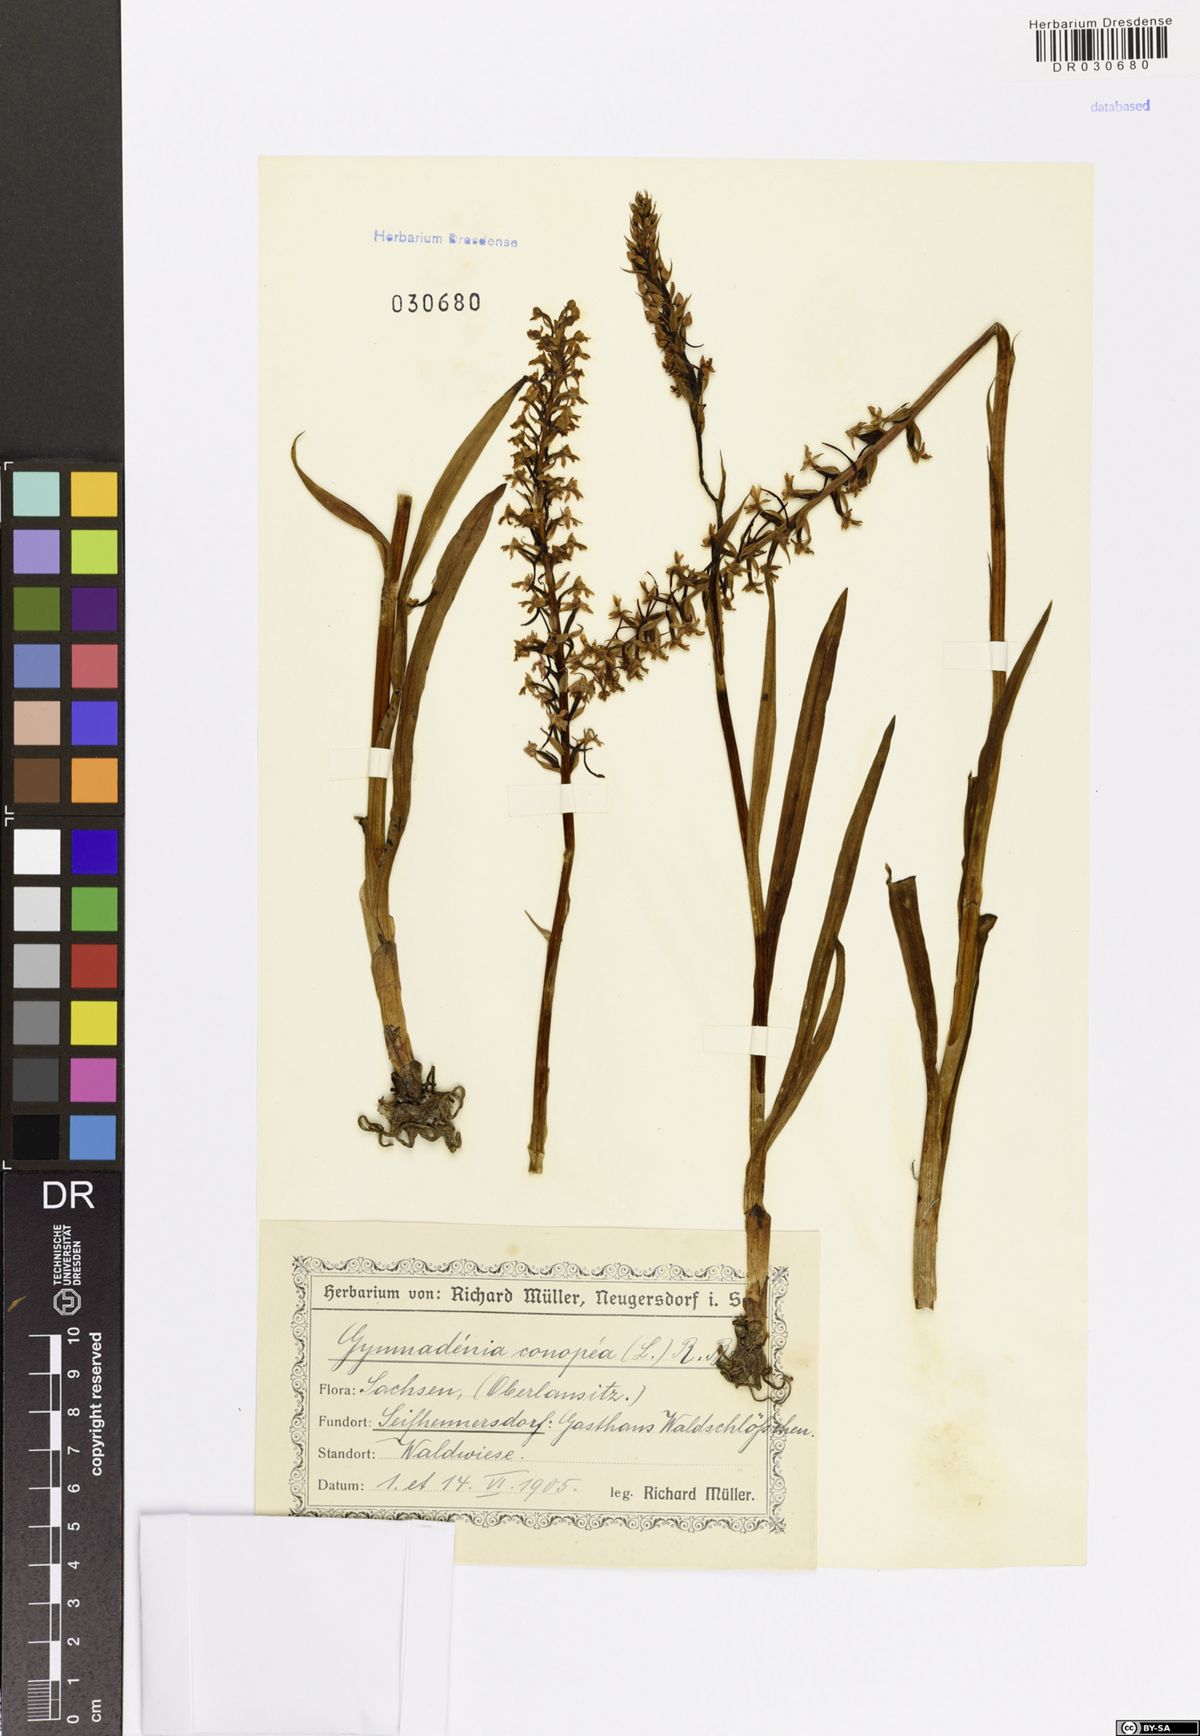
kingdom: Plantae
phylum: Tracheophyta
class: Liliopsida
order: Asparagales
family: Orchidaceae
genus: Gymnadenia
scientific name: Gymnadenia conopsea
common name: Fragrant orchid
